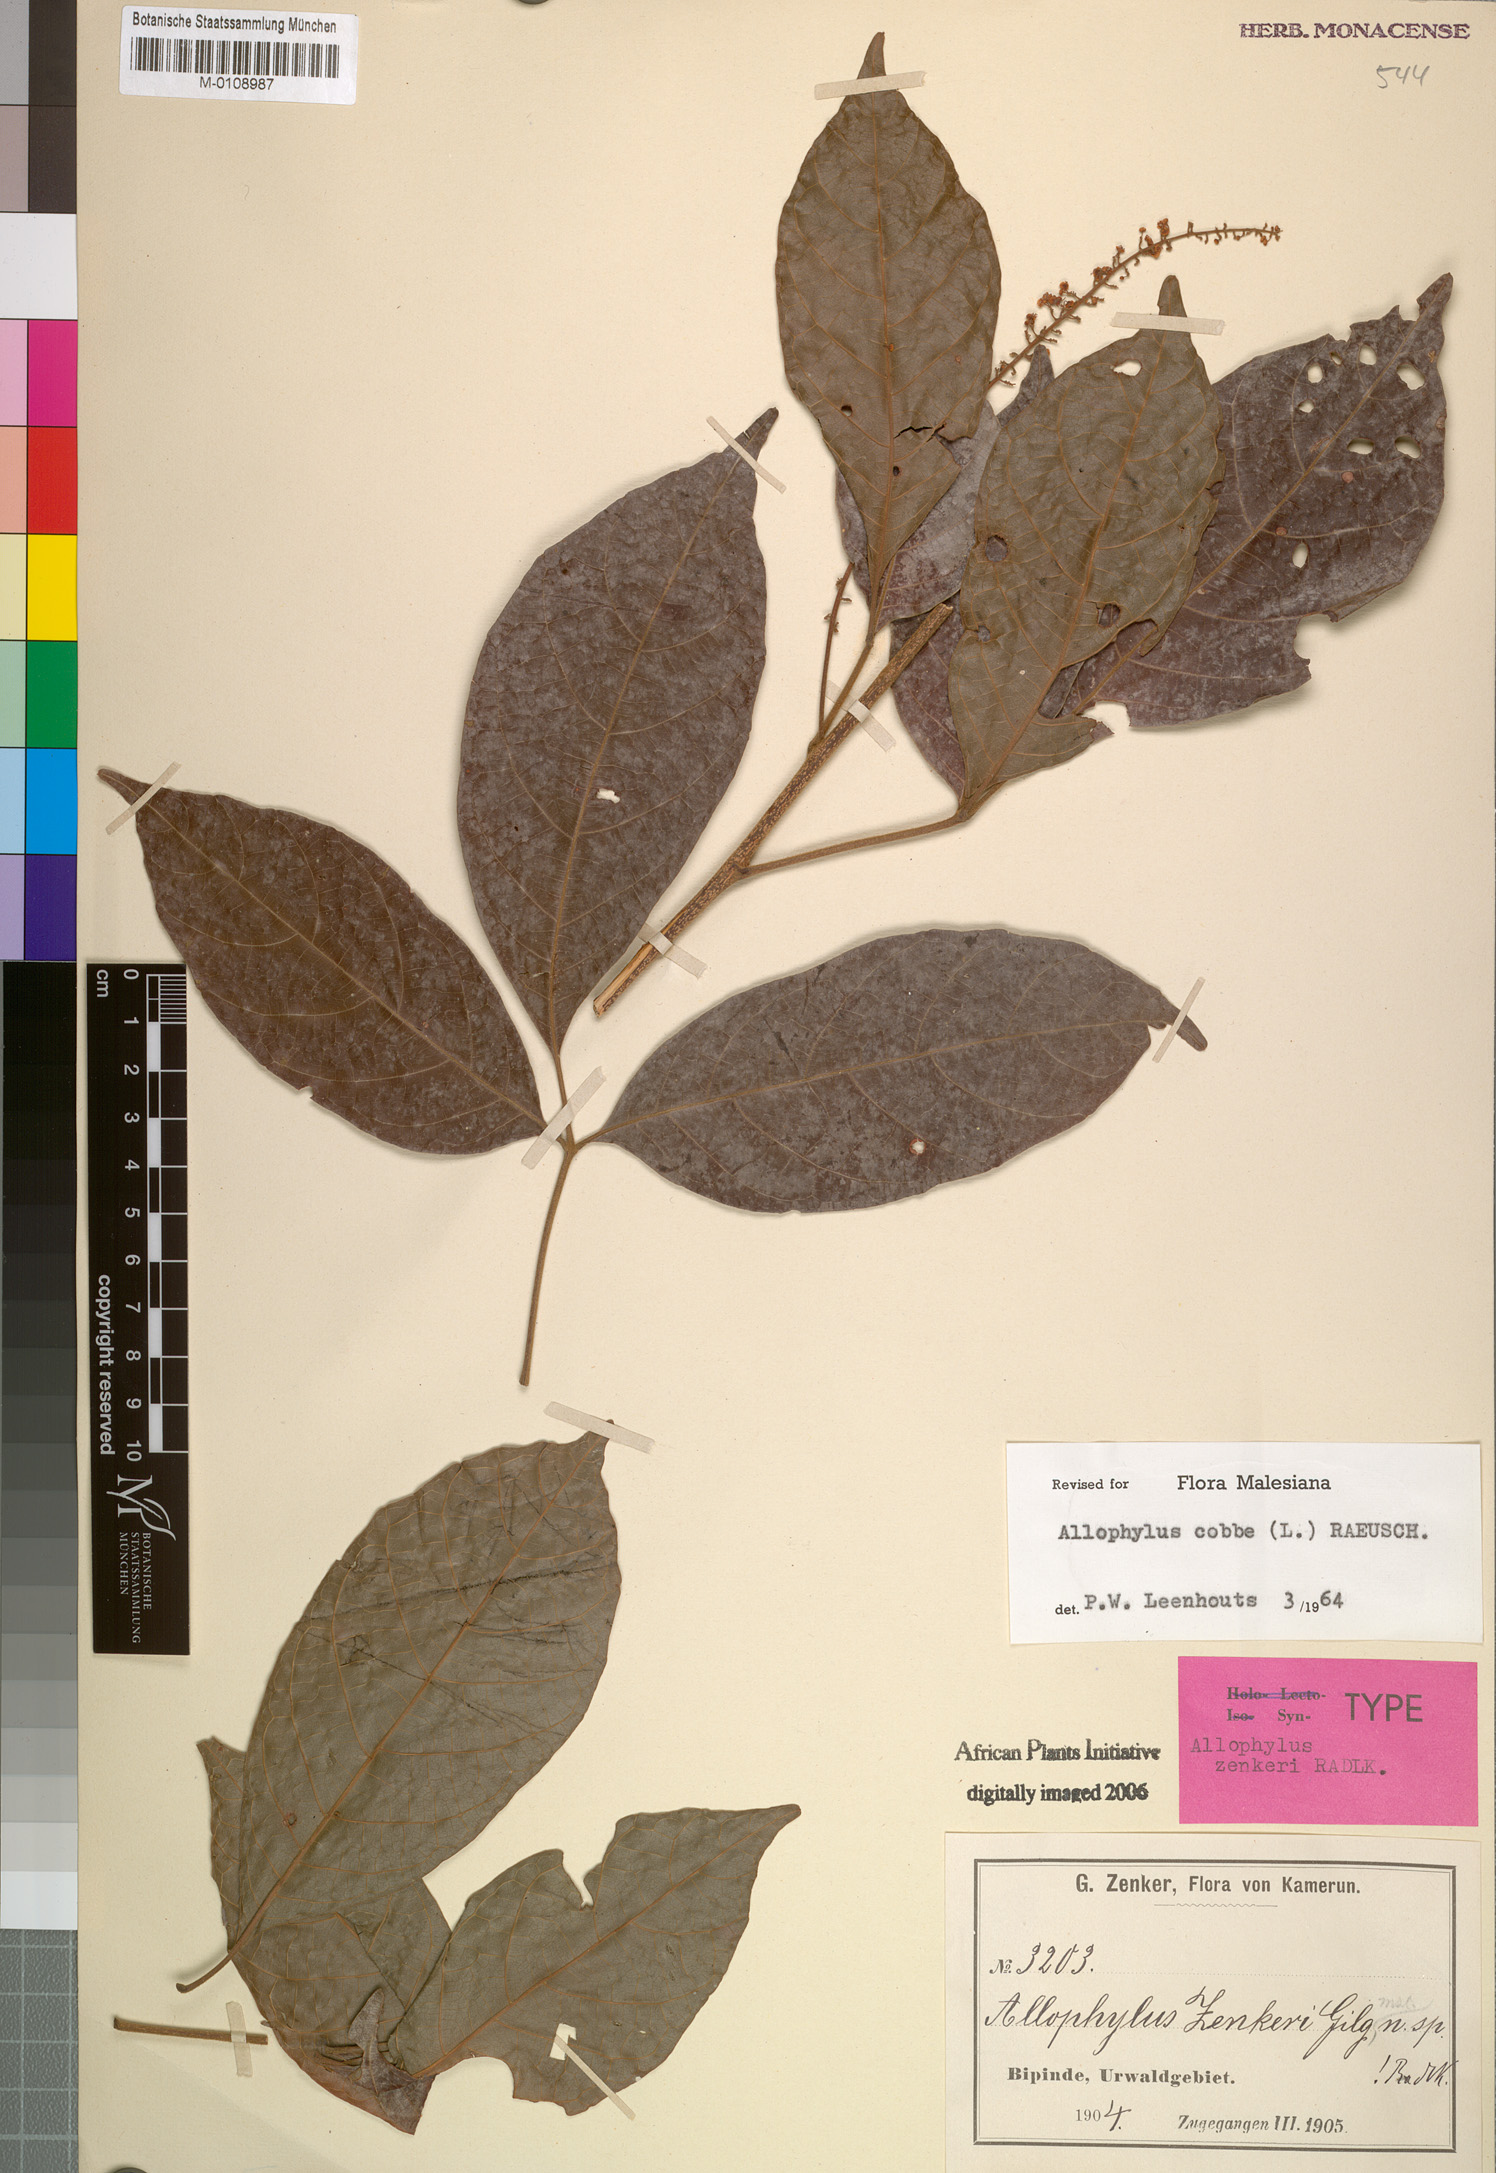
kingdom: Plantae
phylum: Tracheophyta
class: Magnoliopsida
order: Sapindales
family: Sapindaceae
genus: Allophylus
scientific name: Allophylus cobbe
